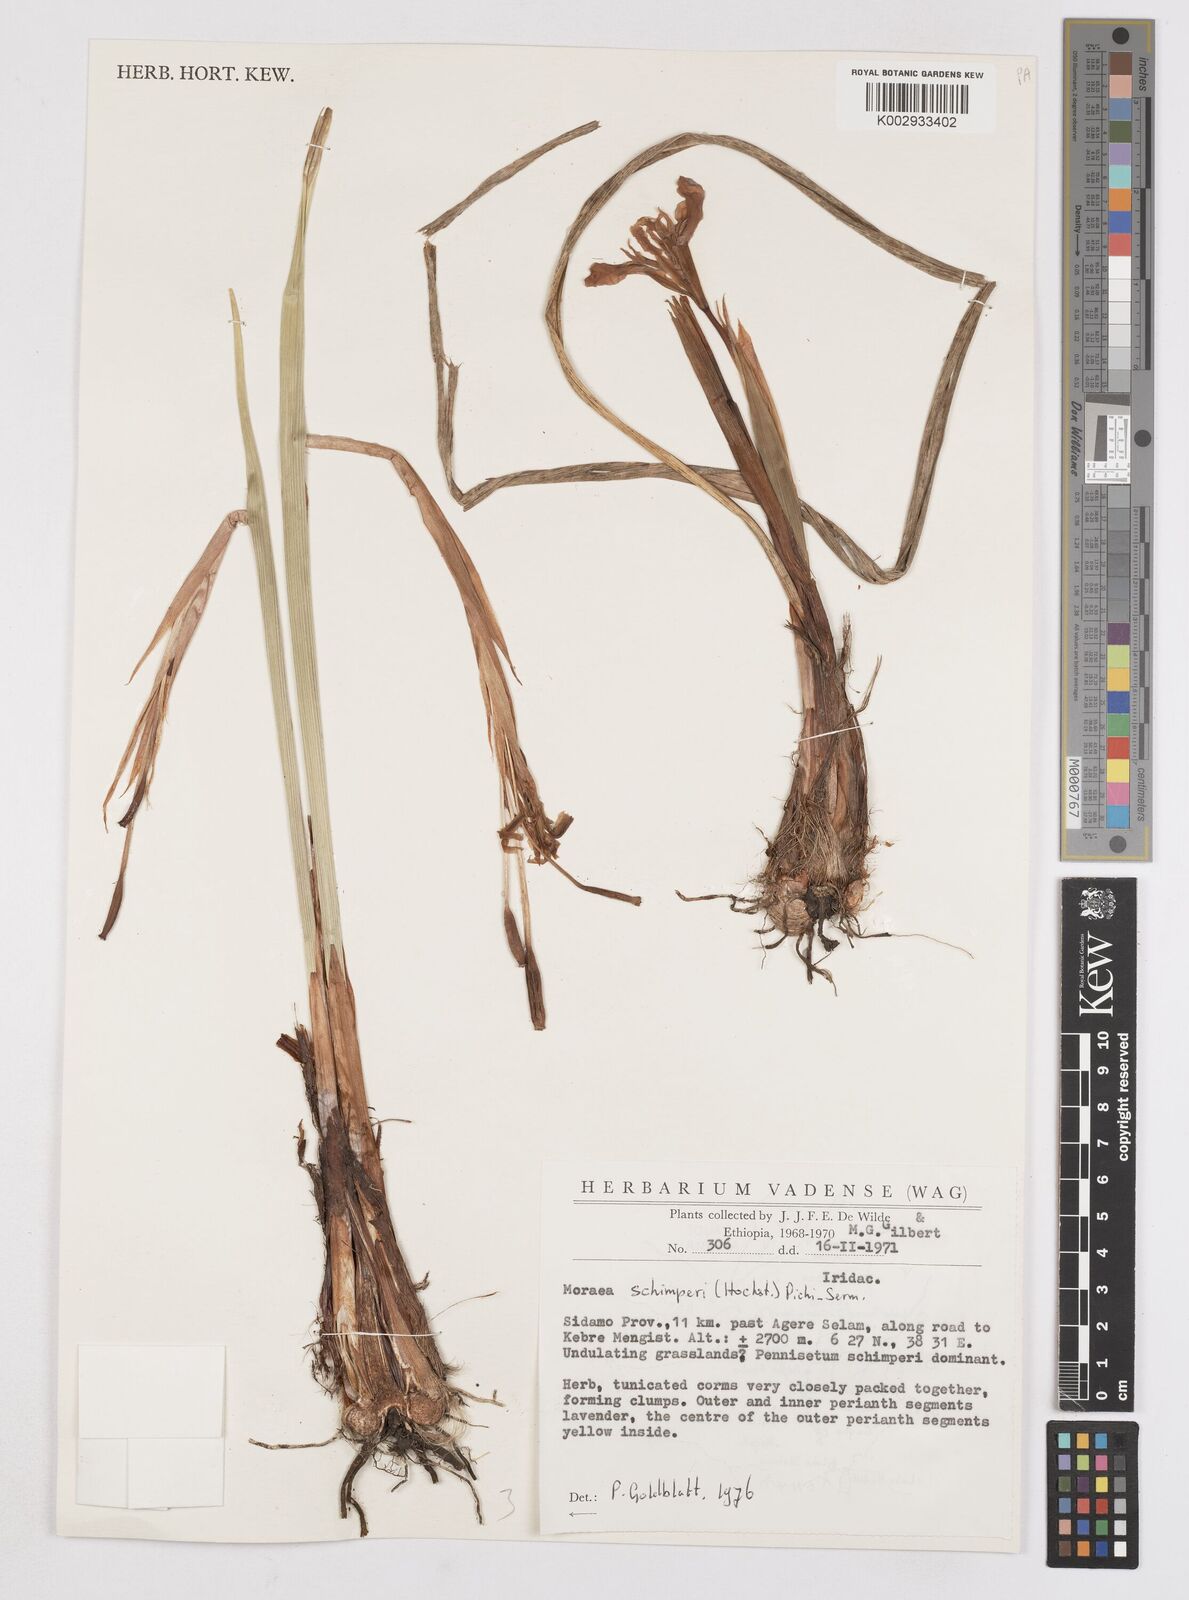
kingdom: Plantae
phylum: Tracheophyta
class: Liliopsida
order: Asparagales
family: Iridaceae
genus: Moraea
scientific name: Moraea schimperi
